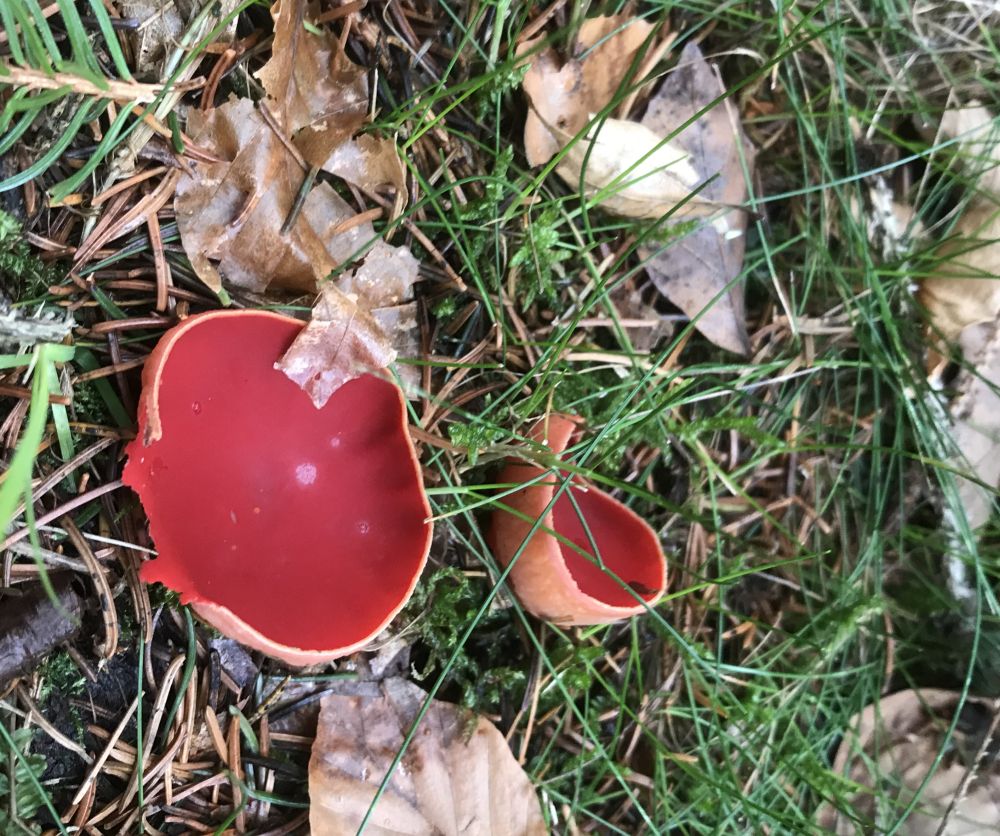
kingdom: Fungi
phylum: Ascomycota
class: Pezizomycetes
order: Pezizales
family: Sarcoscyphaceae
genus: Sarcoscypha
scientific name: Sarcoscypha austriaca
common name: krølhåret pragtbæger
